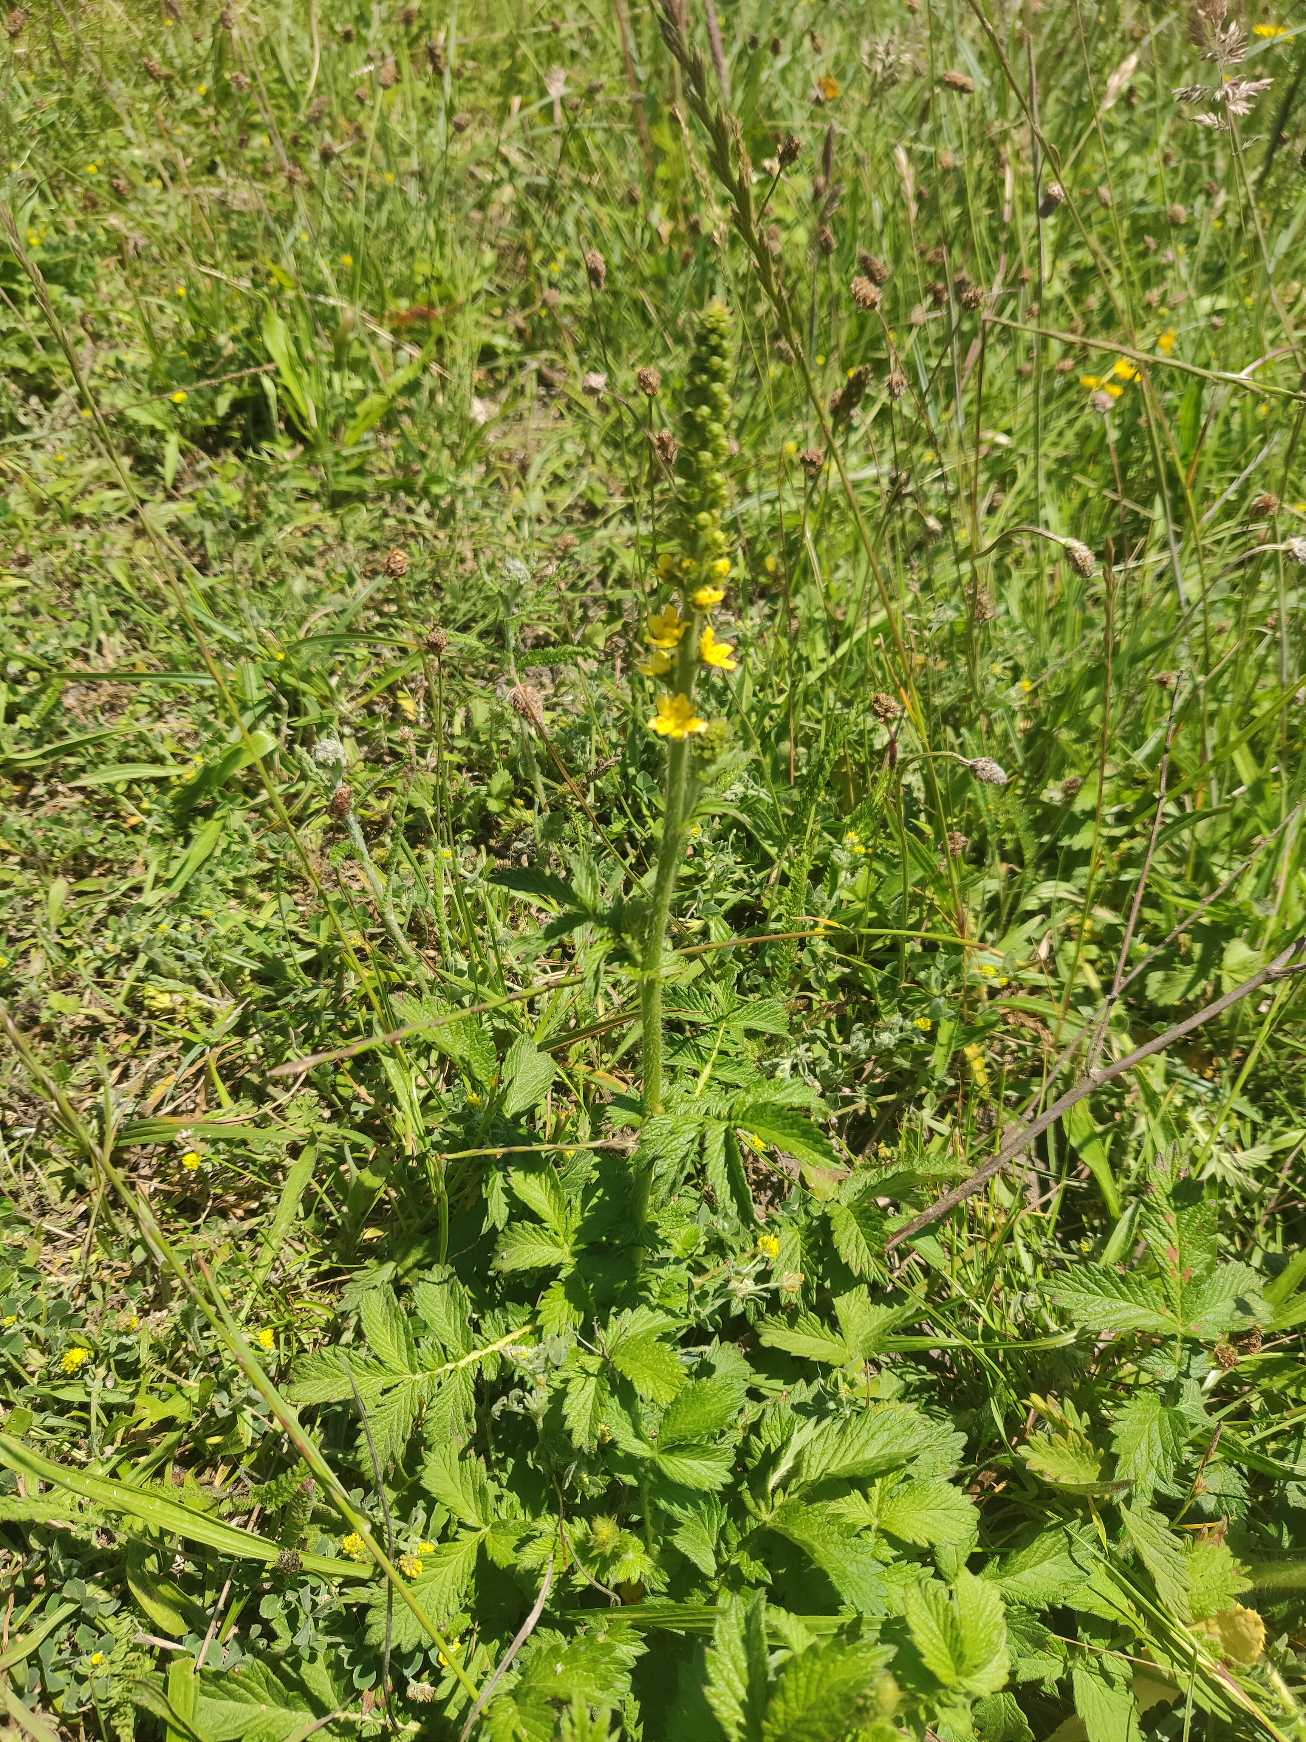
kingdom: Plantae
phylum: Tracheophyta
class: Magnoliopsida
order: Rosales
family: Rosaceae
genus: Agrimonia
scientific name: Agrimonia eupatoria
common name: Almindelig agermåne
